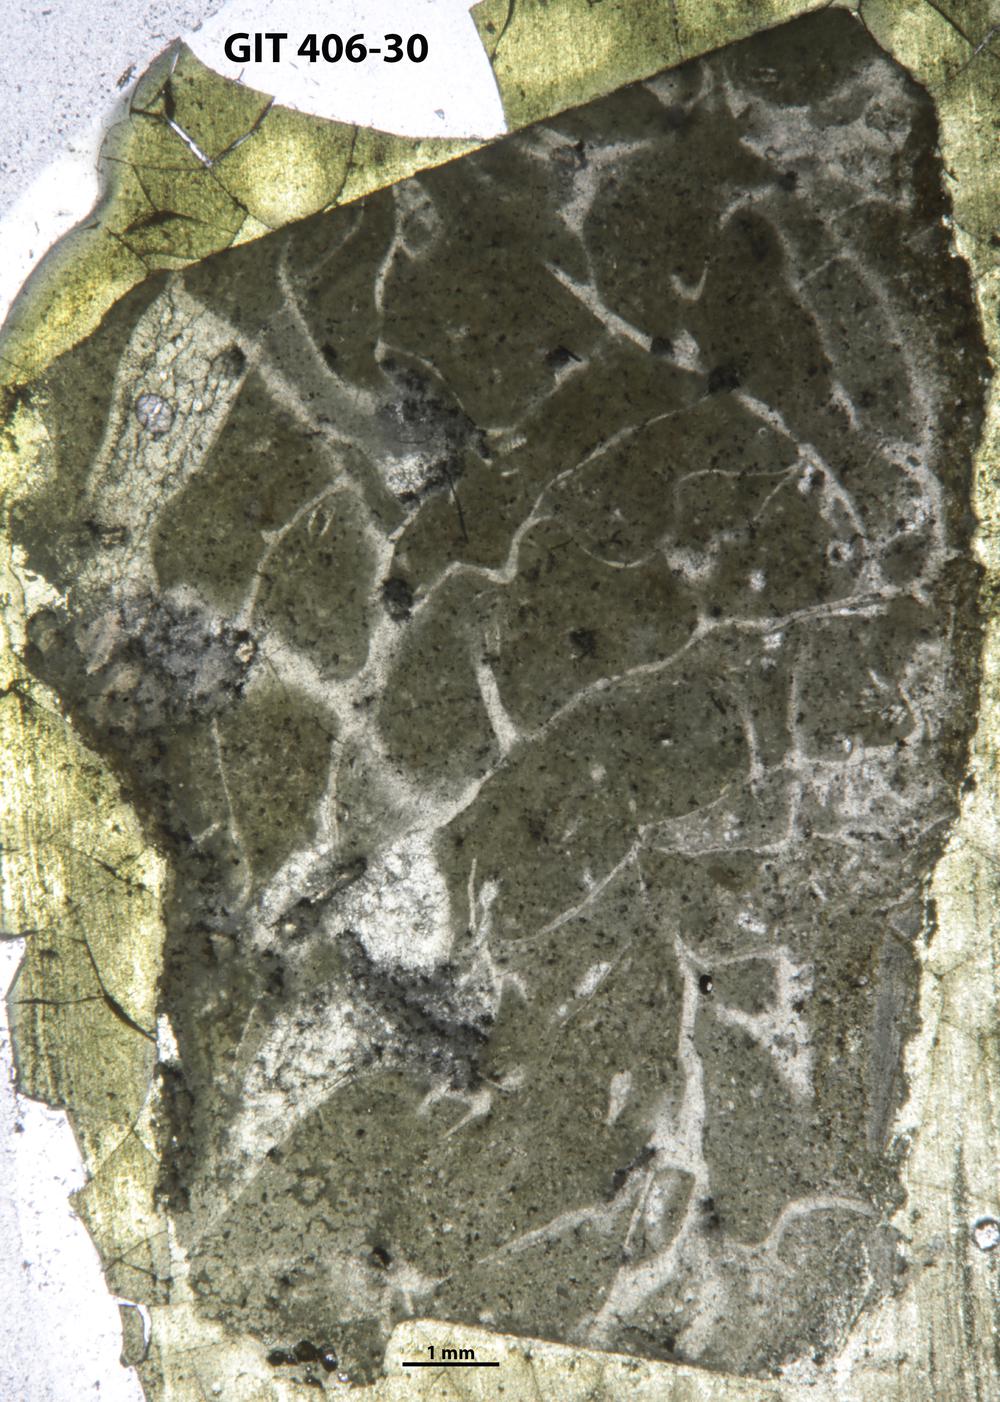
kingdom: Animalia
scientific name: Animalia
